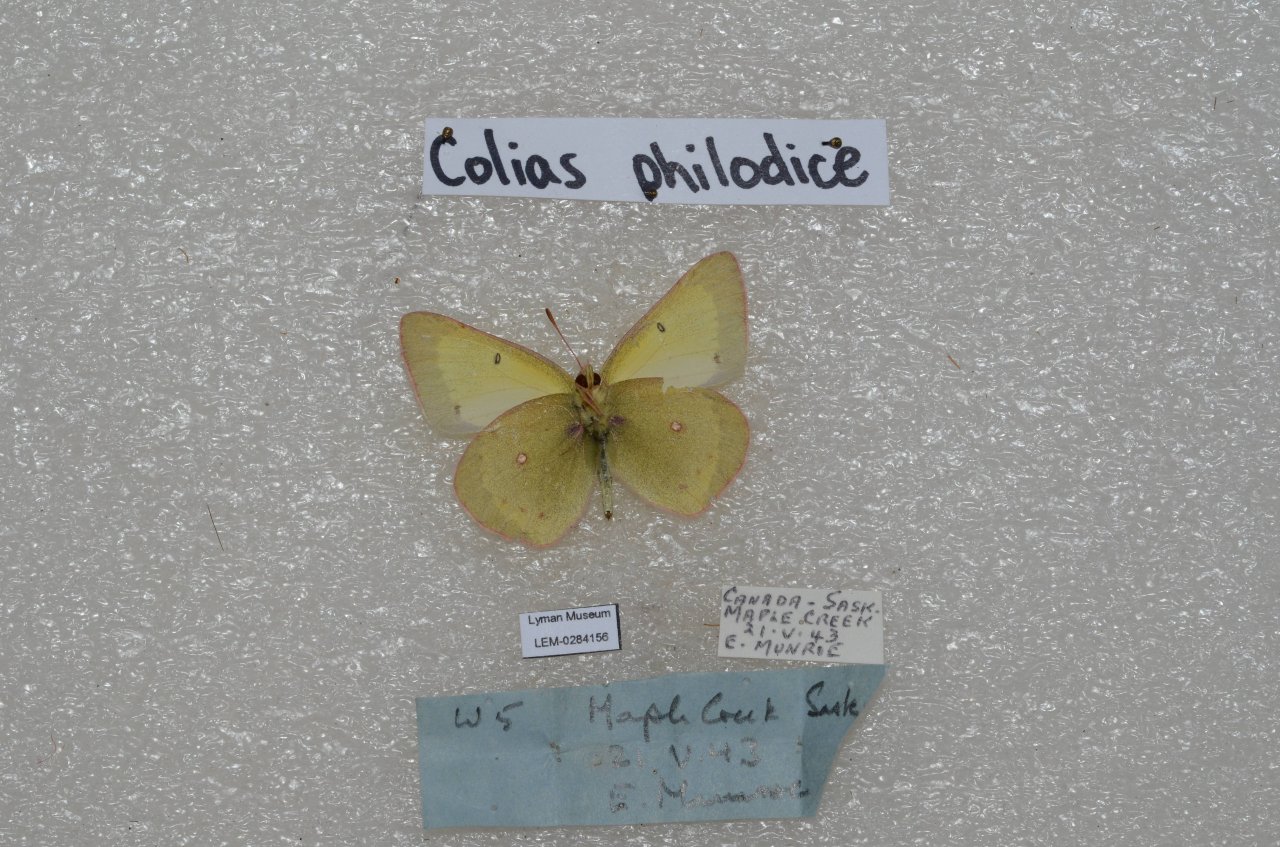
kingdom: Animalia
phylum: Arthropoda
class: Insecta
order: Lepidoptera
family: Pieridae
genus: Colias
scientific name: Colias philodice
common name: Clouded Sulphur
